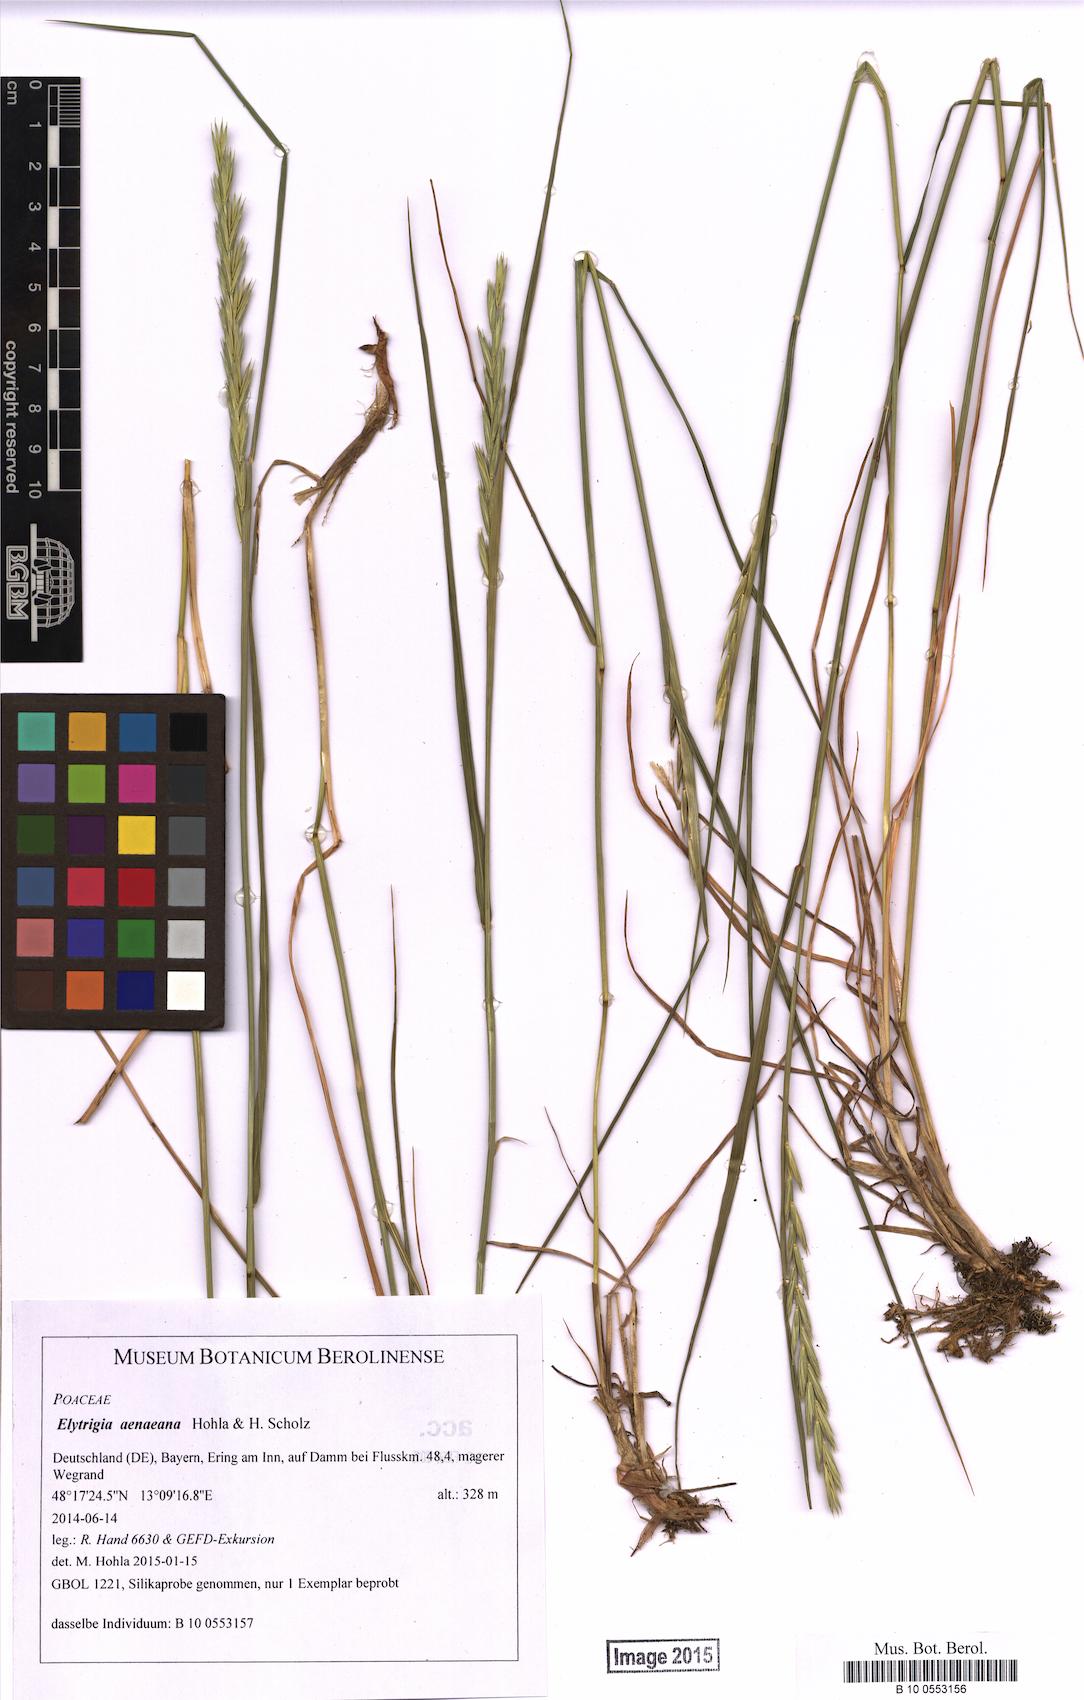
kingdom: Plantae
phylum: Tracheophyta
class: Liliopsida
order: Poales
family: Poaceae
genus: Elymus
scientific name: Elymus aenaeanus
